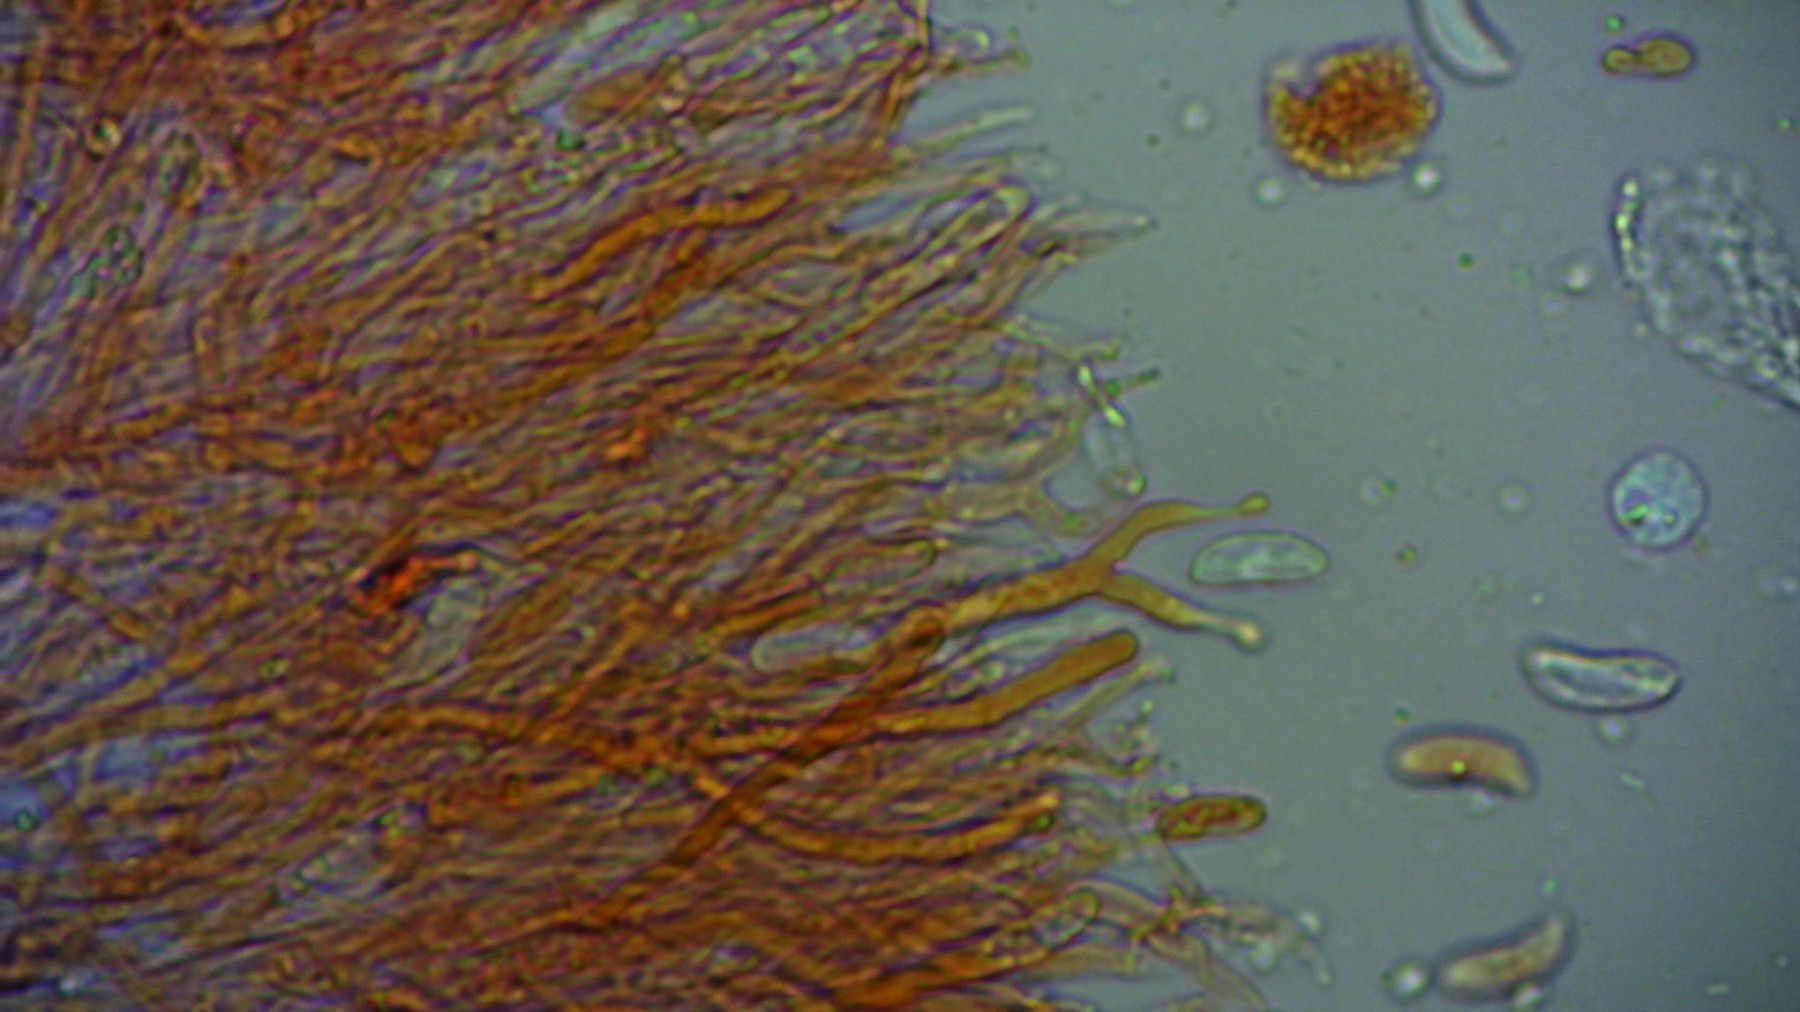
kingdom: Fungi
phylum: Basidiomycota
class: Dacrymycetes
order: Dacrymycetales
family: Cerinomycetaceae
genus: Cerinomyces
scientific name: Cerinomyces tortus
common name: grumset tåresvamp
